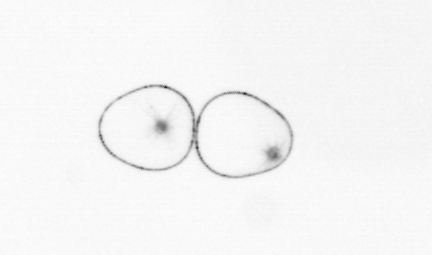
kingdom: Chromista
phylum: Myzozoa
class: Dinophyceae
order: Noctilucales
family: Noctilucaceae
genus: Noctiluca
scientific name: Noctiluca scintillans
